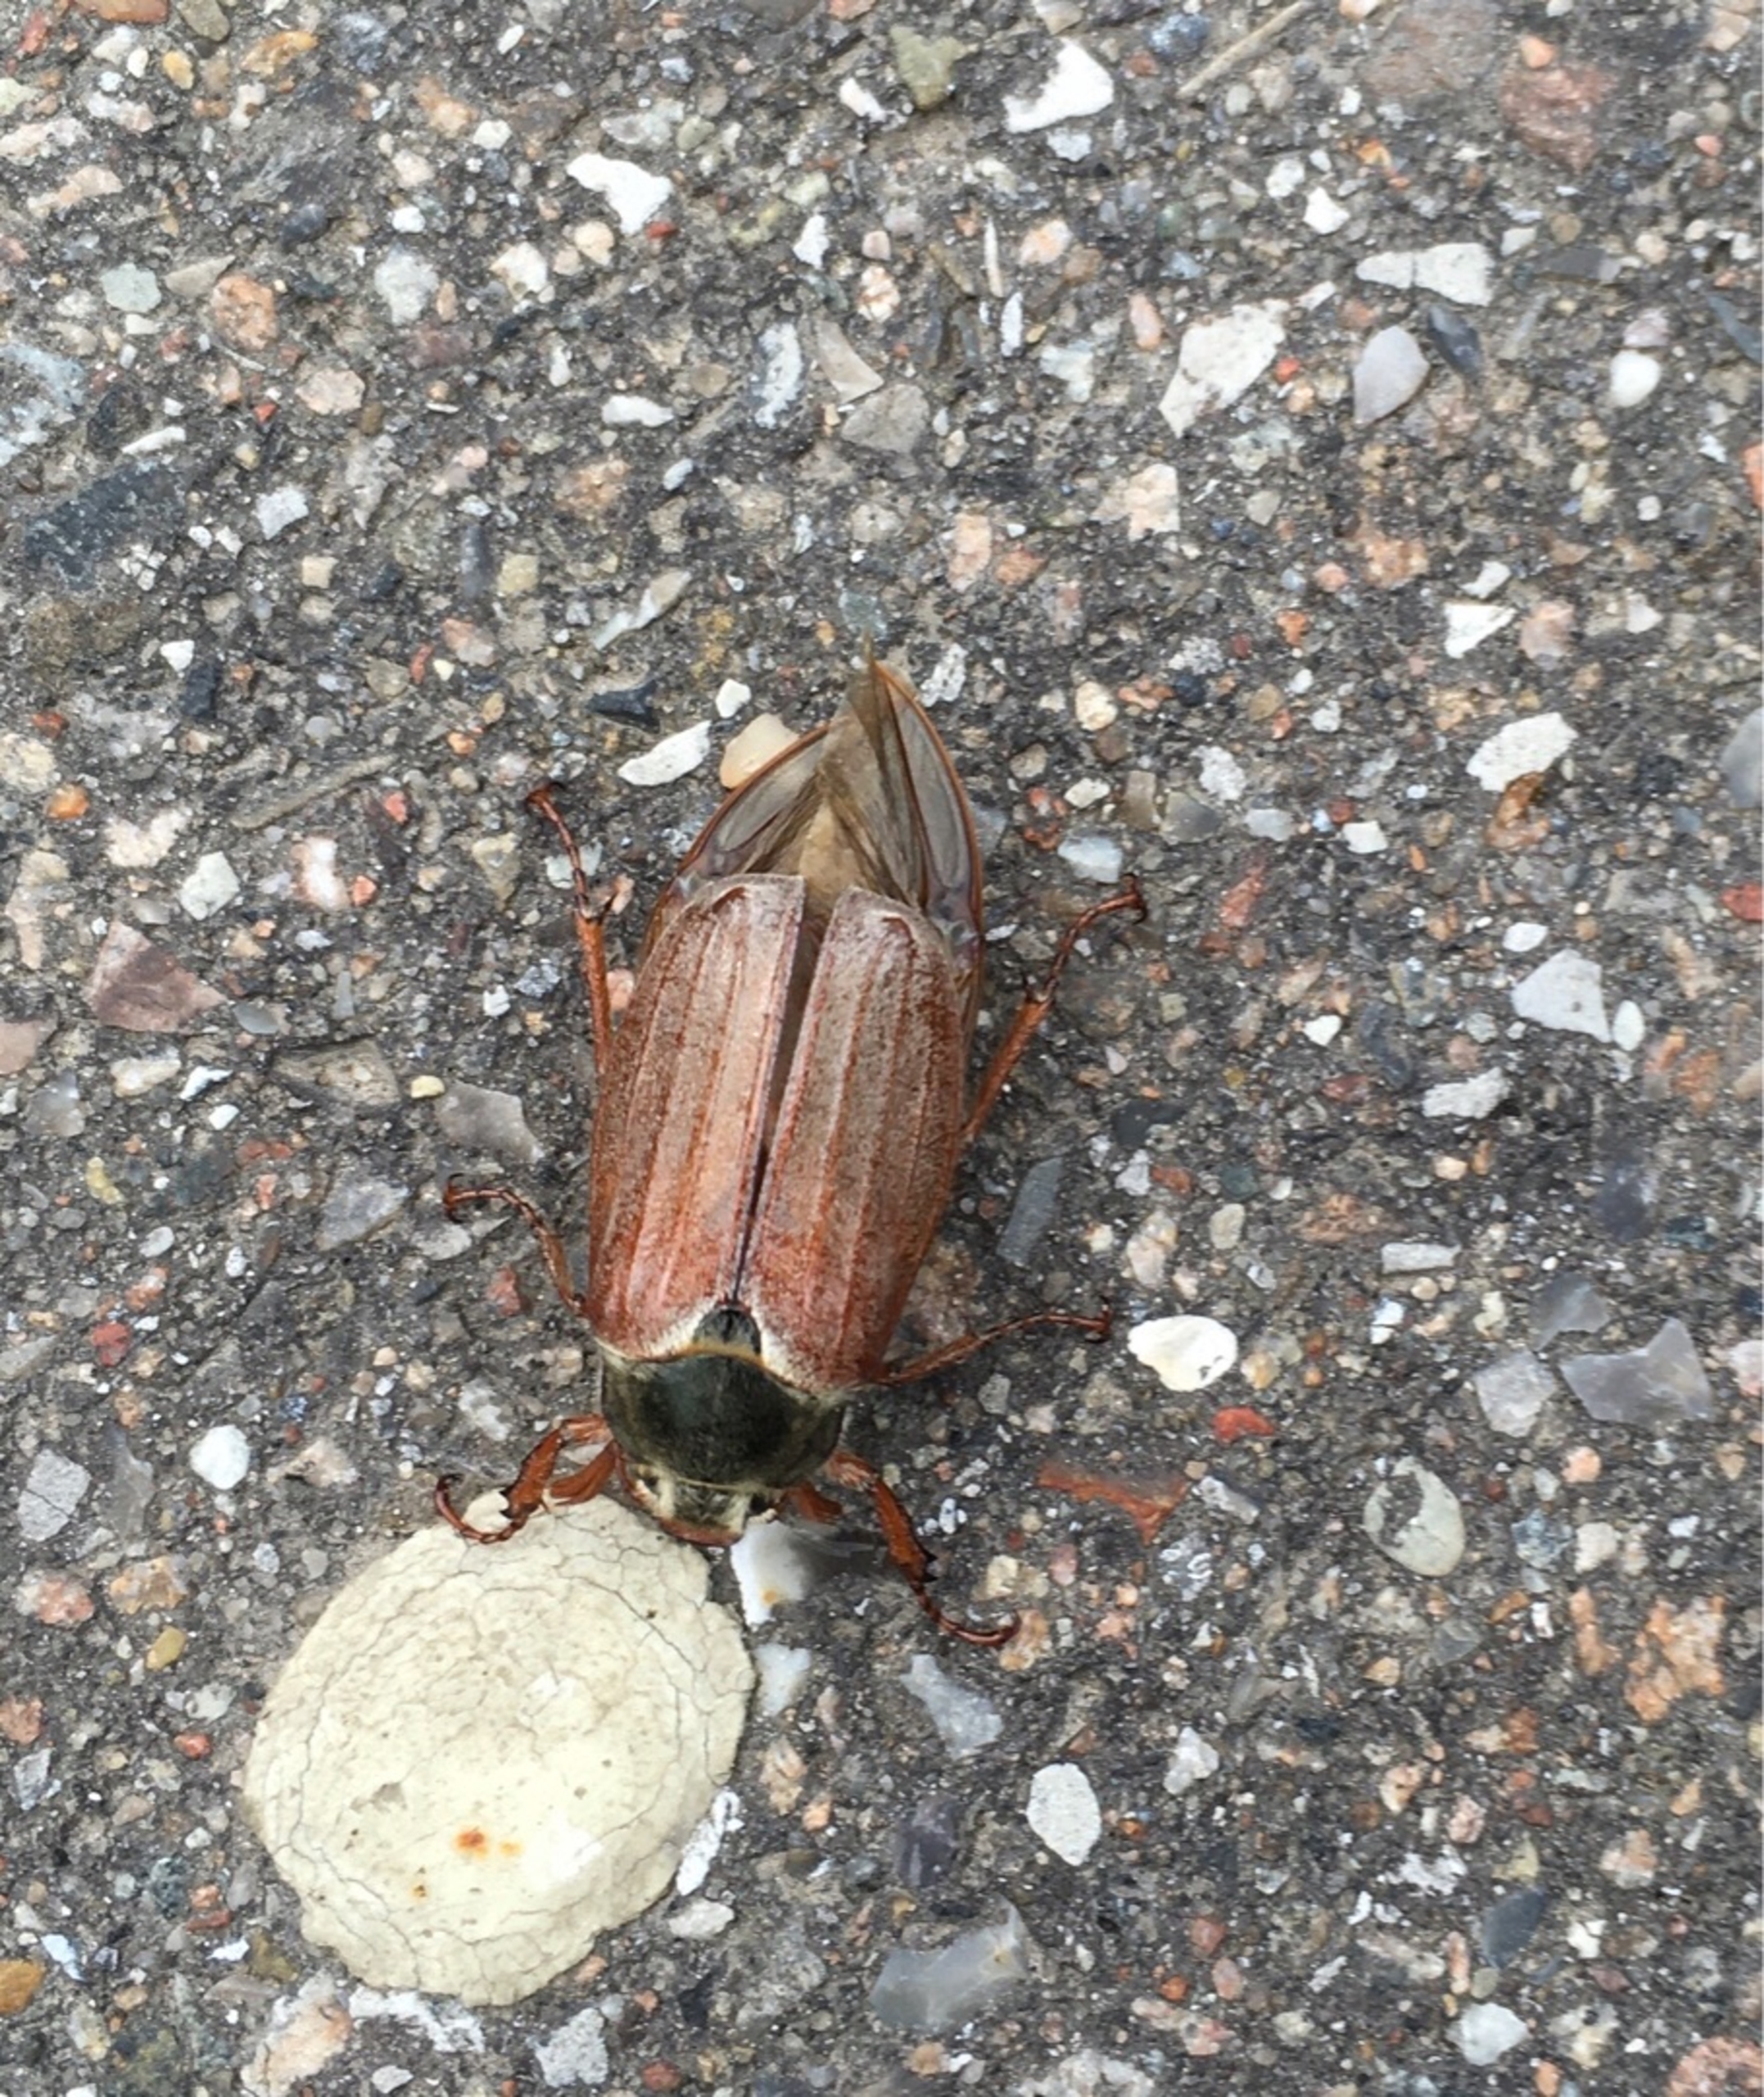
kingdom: Animalia
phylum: Arthropoda
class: Insecta
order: Coleoptera
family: Scarabaeidae
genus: Melolontha
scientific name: Melolontha melolontha
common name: Almindelig oldenborre
